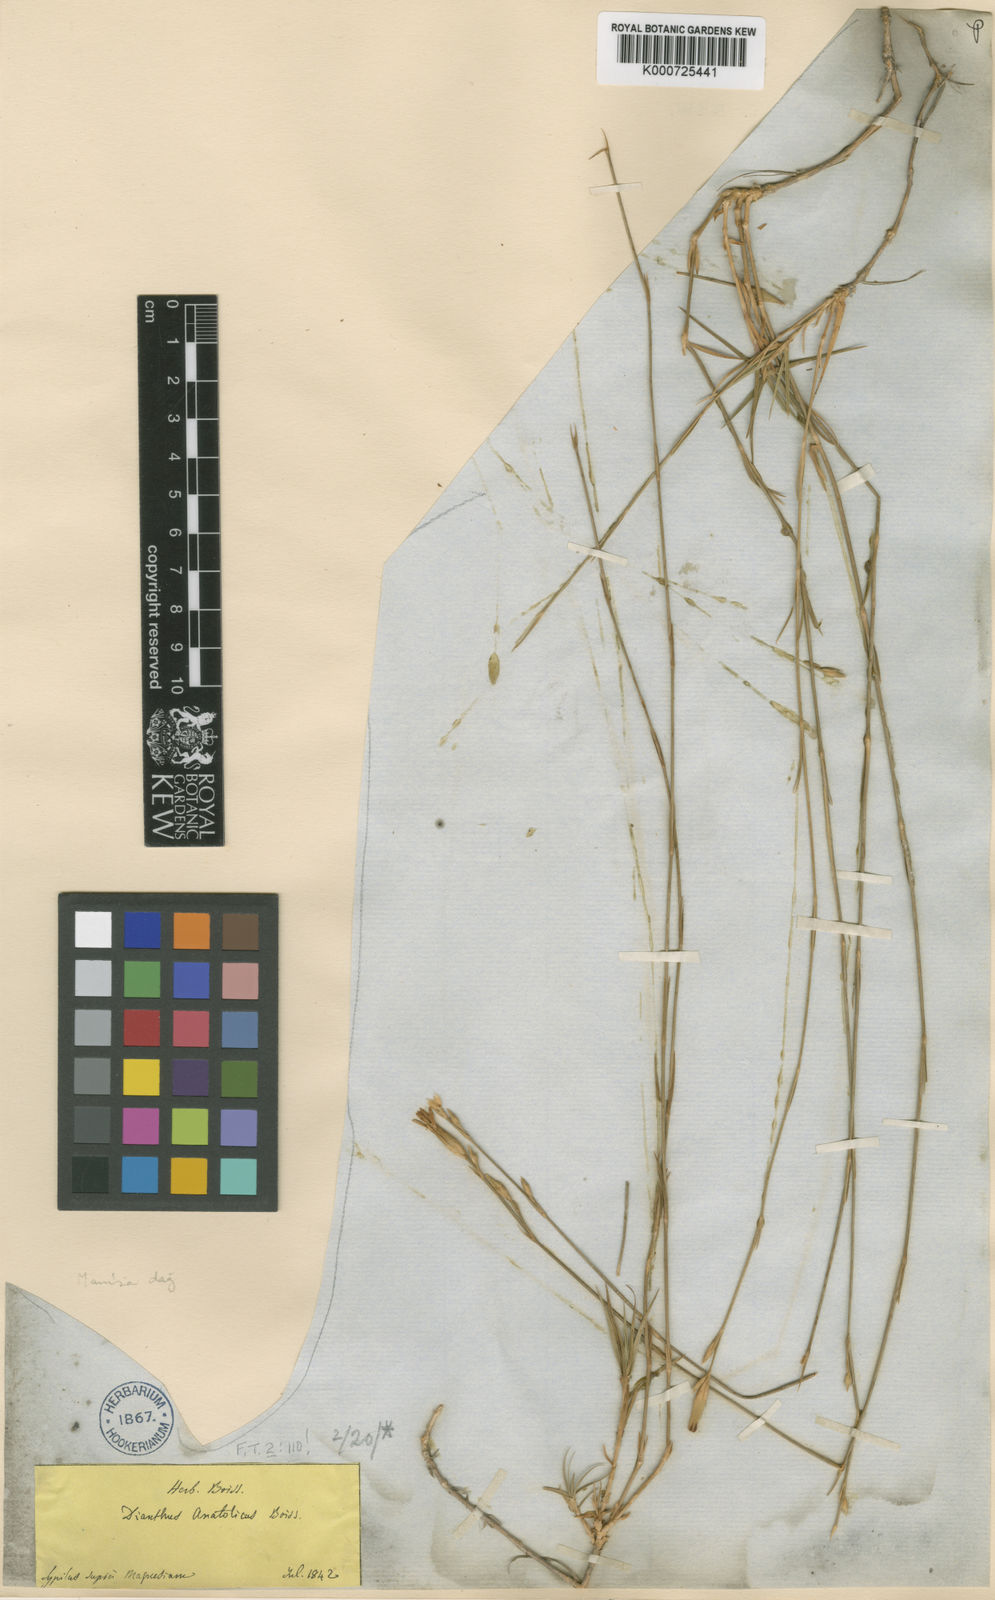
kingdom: Plantae
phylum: Tracheophyta
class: Magnoliopsida
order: Caryophyllales
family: Caryophyllaceae
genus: Dianthus
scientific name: Dianthus arpadianus
